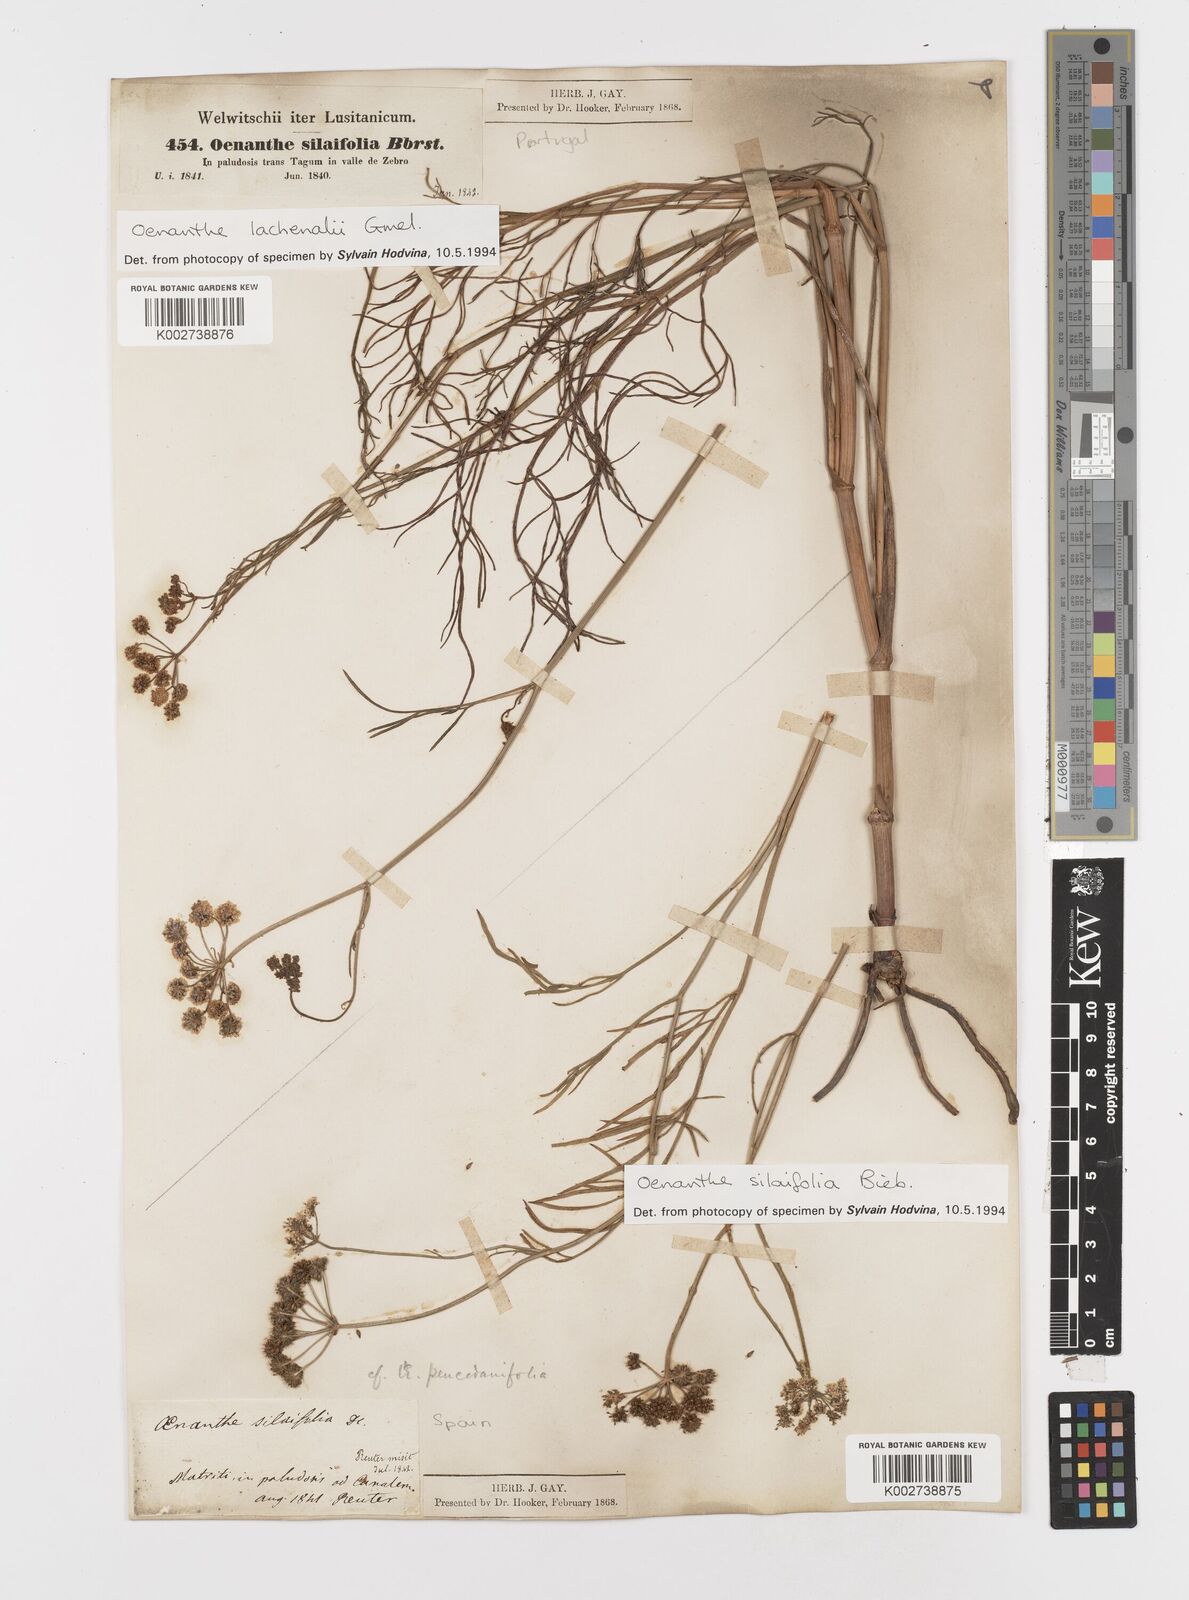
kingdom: Plantae
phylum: Tracheophyta
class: Magnoliopsida
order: Apiales
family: Apiaceae
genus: Oenanthe
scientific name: Oenanthe silaifolia
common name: Narrow-leaved water-dropwort
